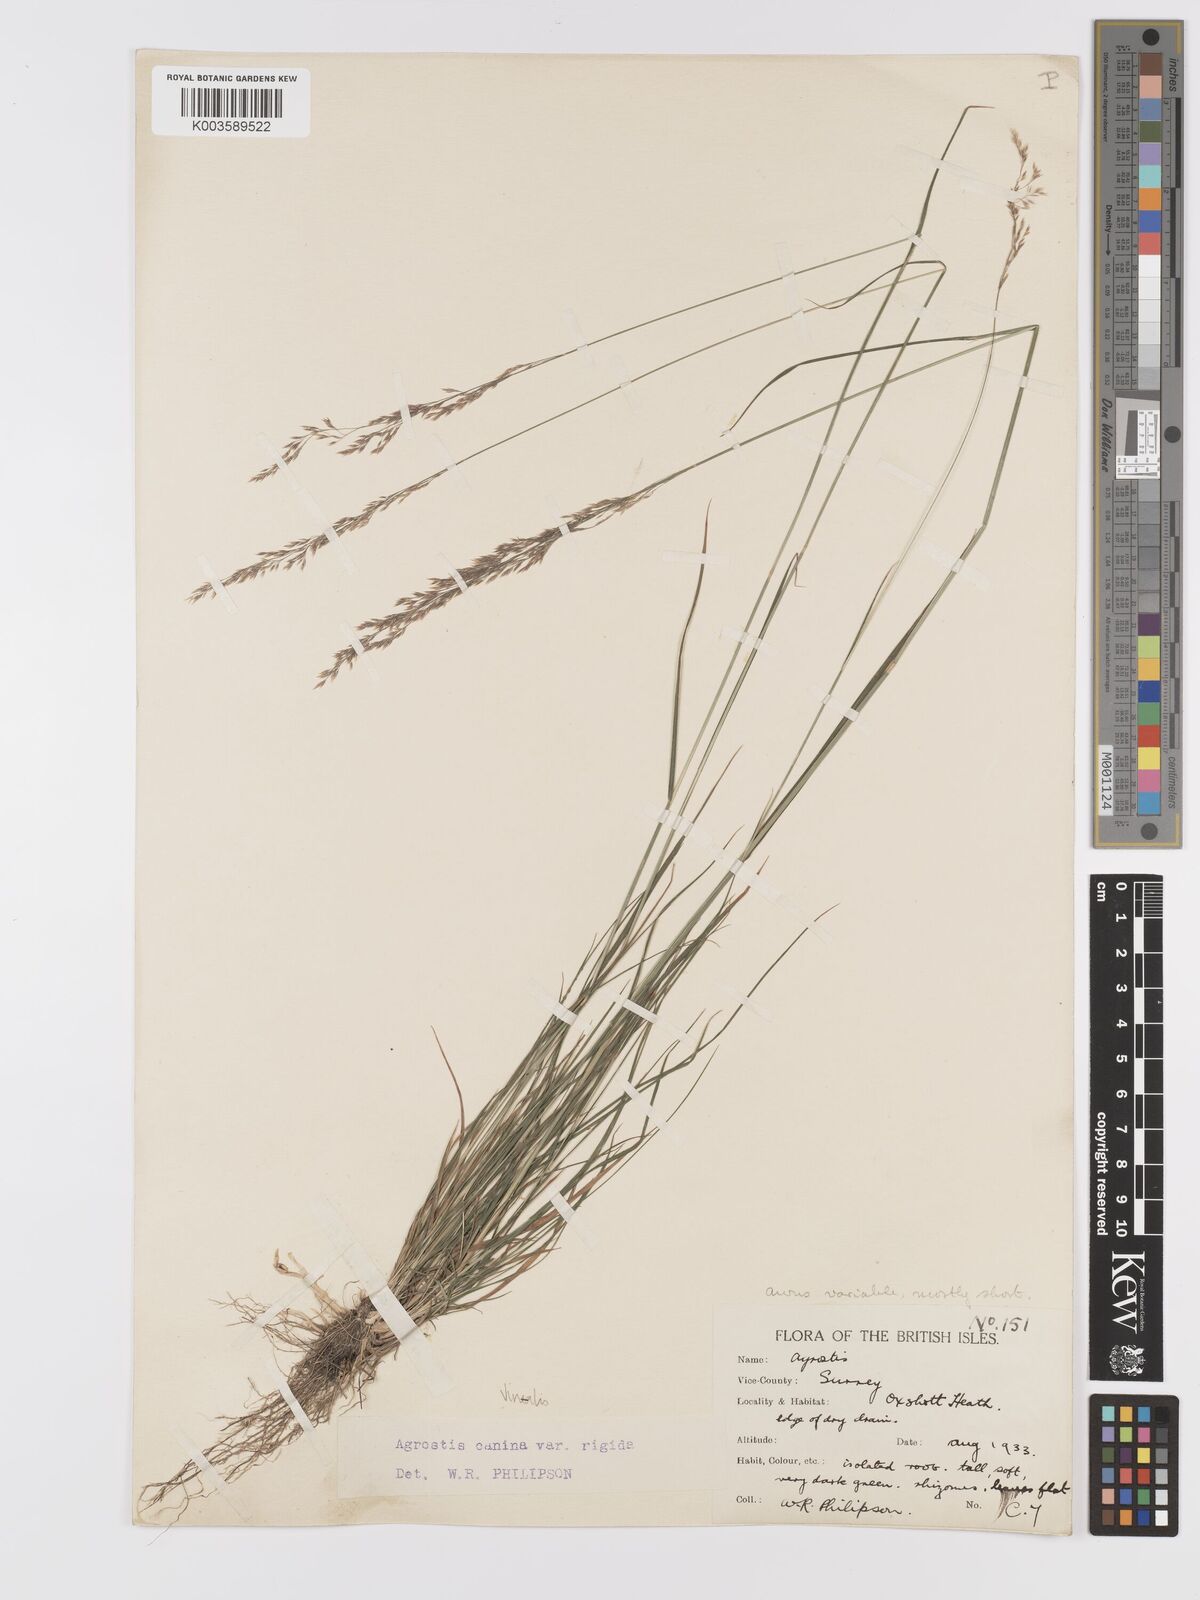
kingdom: Plantae
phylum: Tracheophyta
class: Liliopsida
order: Poales
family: Poaceae
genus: Agrostis
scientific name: Agrostis
